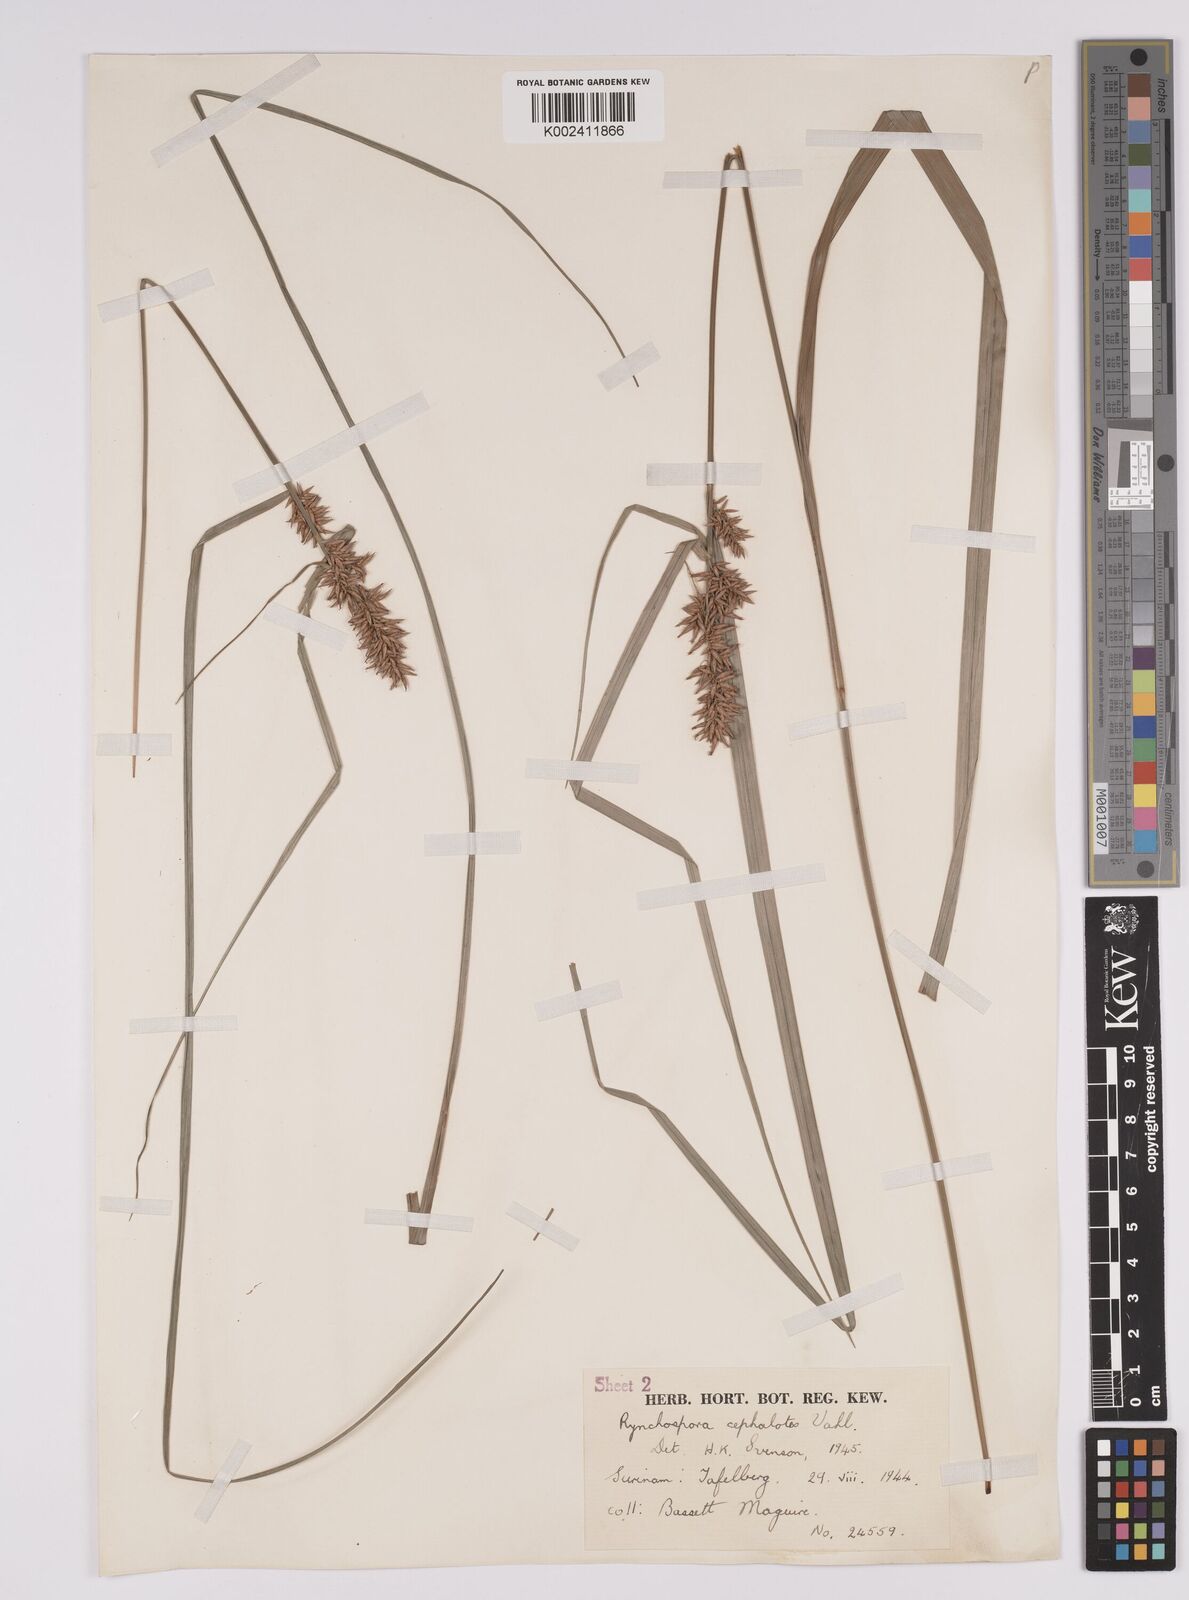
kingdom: Plantae
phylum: Tracheophyta
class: Liliopsida
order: Poales
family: Cyperaceae
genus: Rhynchospora
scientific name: Rhynchospora cephalotes
